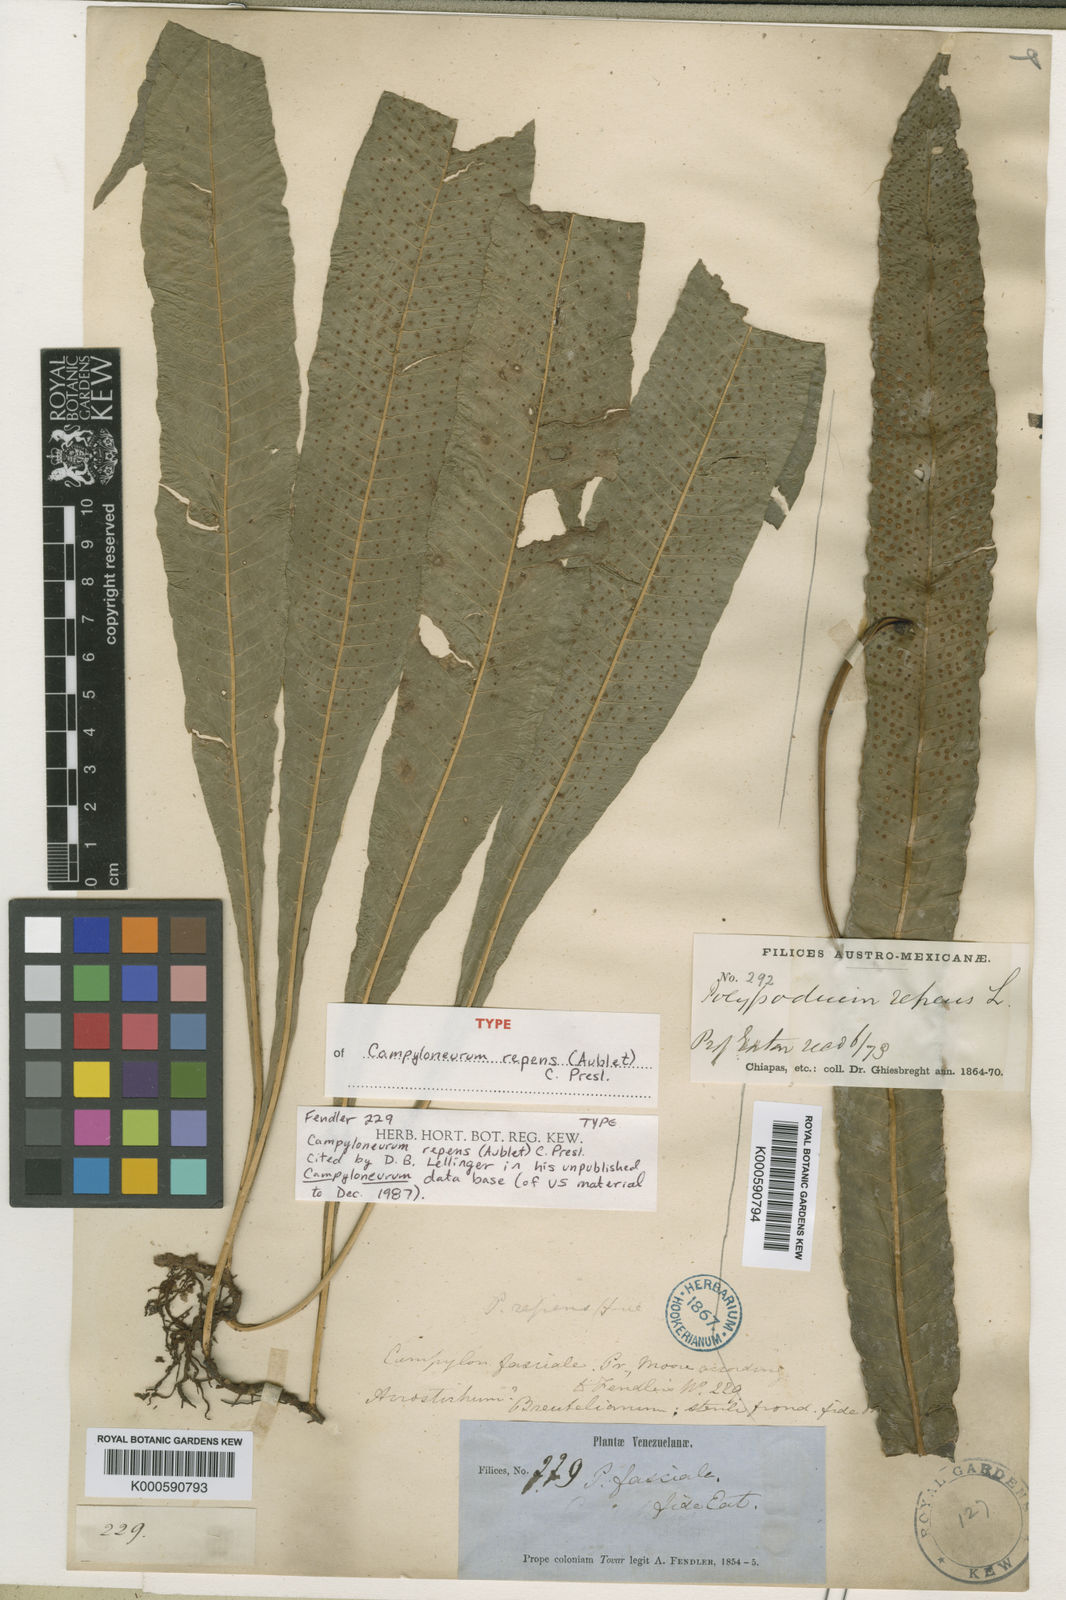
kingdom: Plantae
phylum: Tracheophyta
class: Polypodiopsida
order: Polypodiales
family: Polypodiaceae
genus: Campyloneurum
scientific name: Campyloneurum repens
